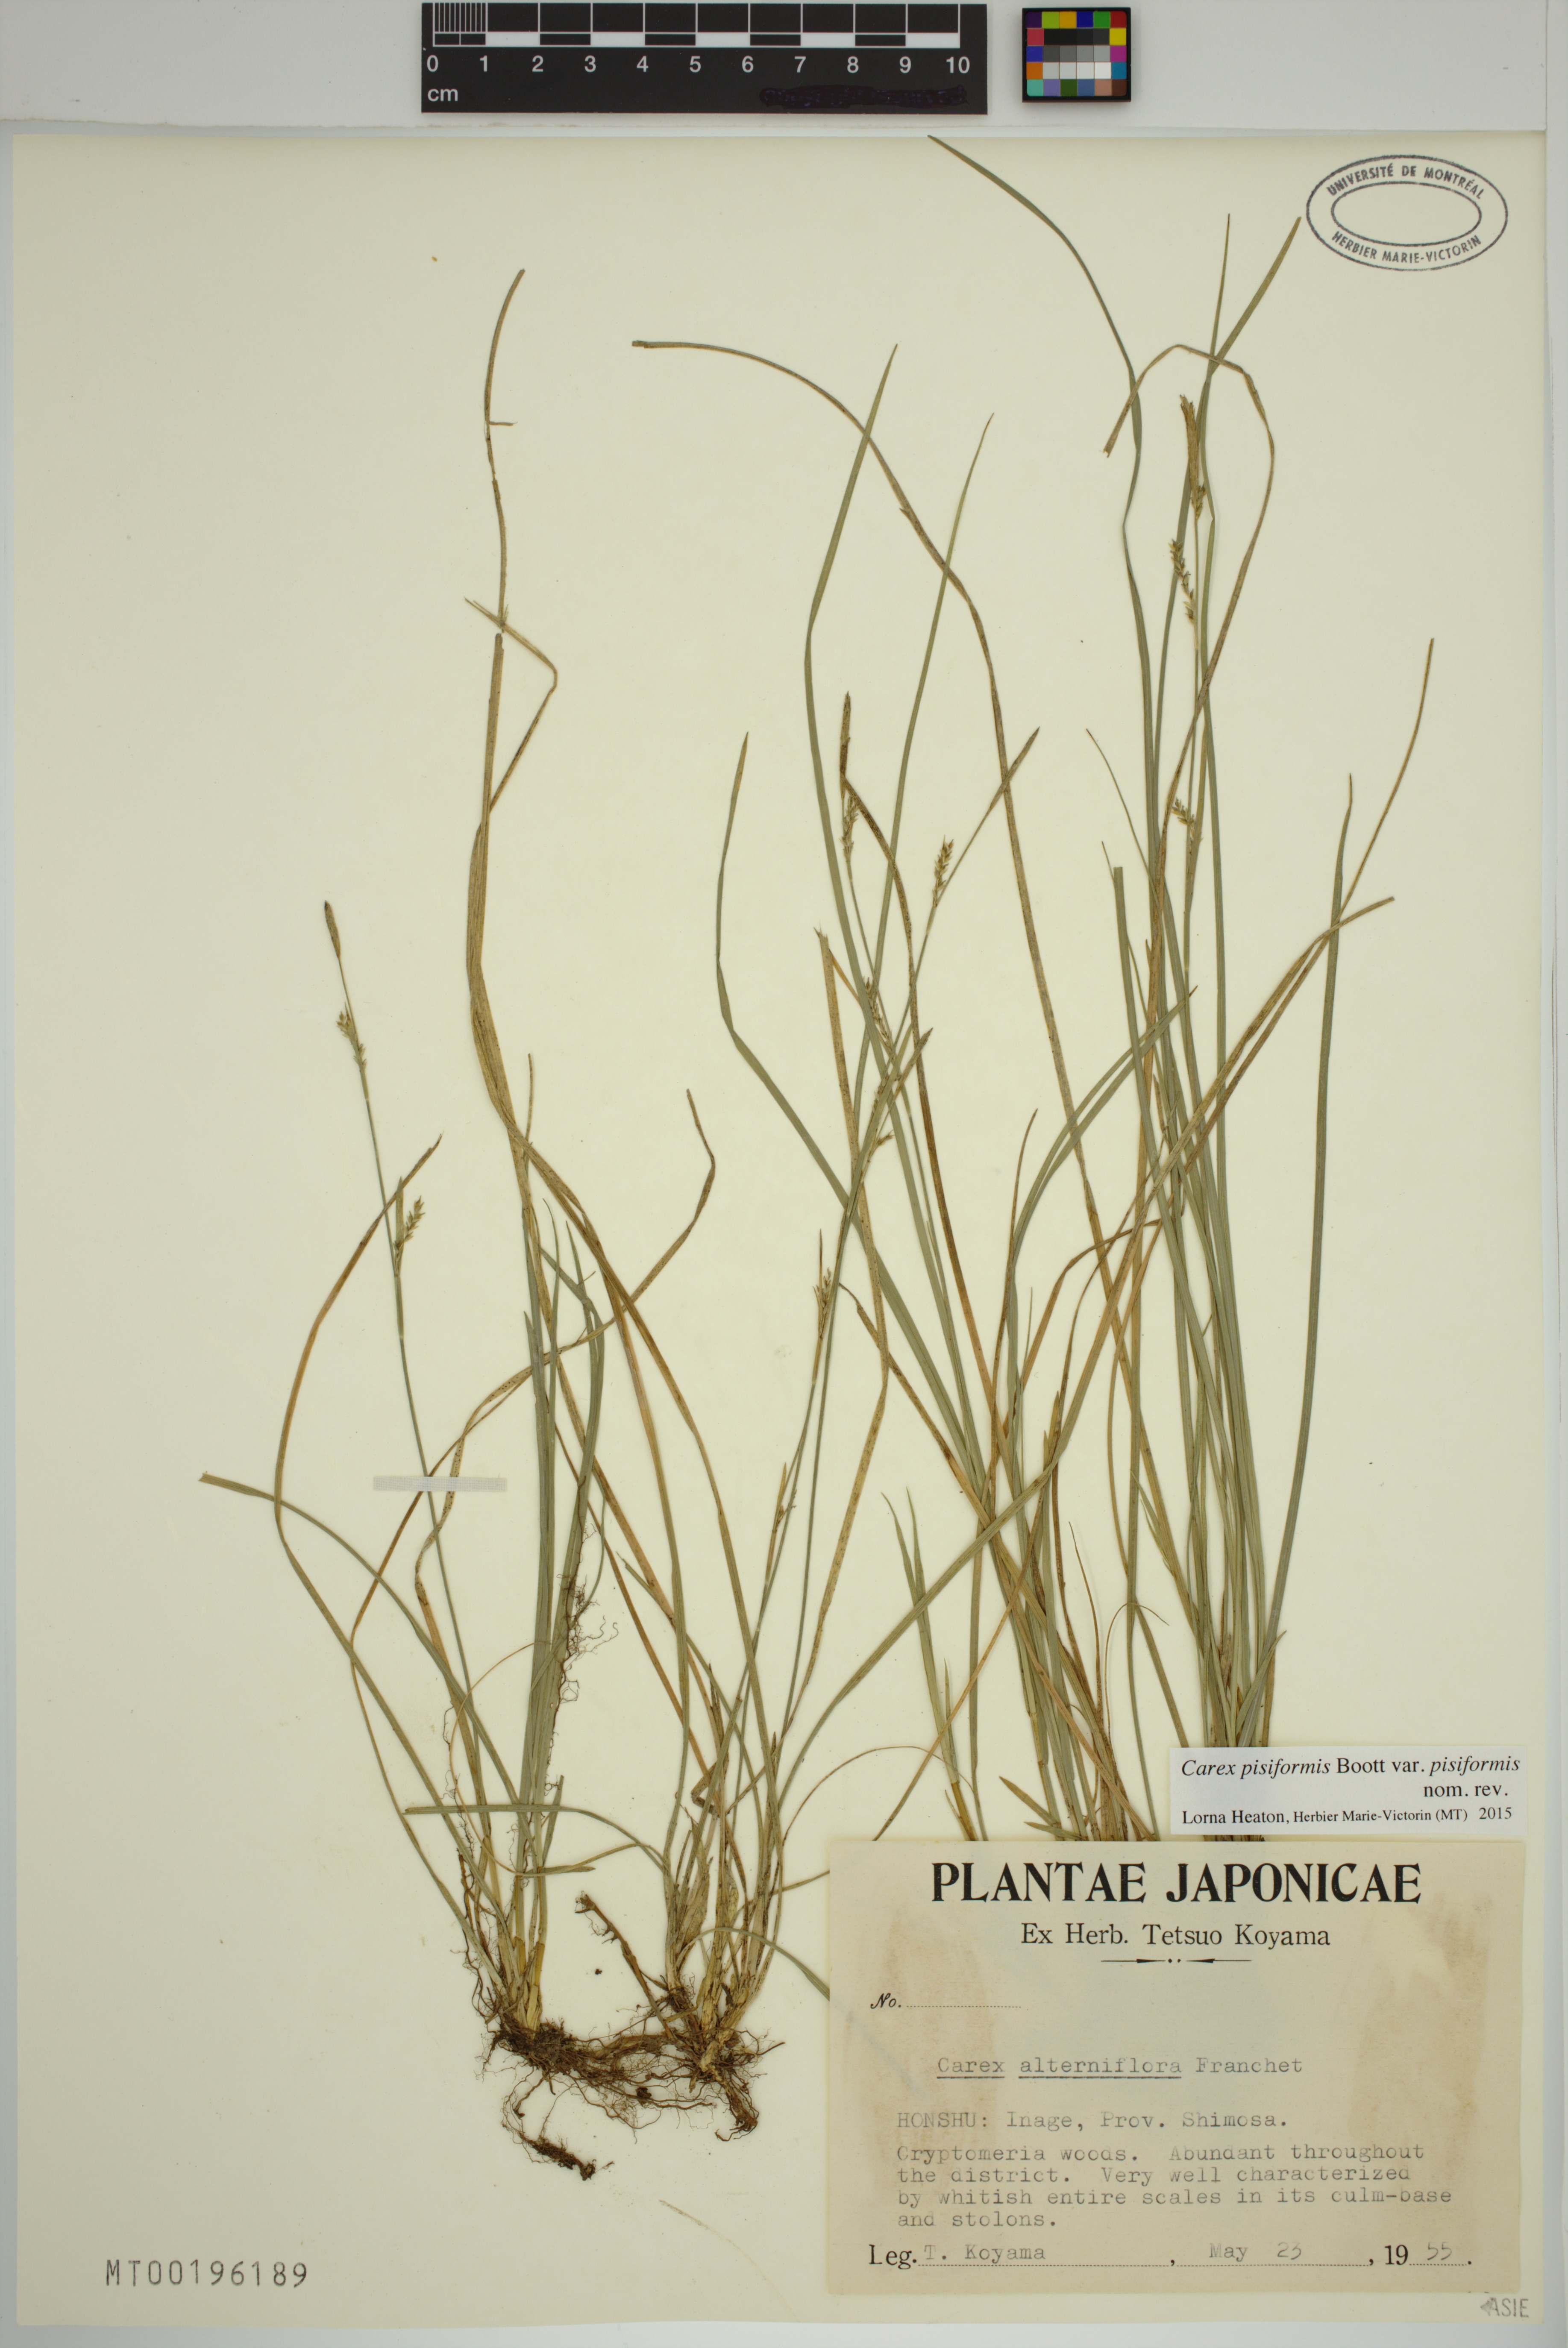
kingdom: Plantae
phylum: Tracheophyta
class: Liliopsida
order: Poales
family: Cyperaceae
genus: Carex
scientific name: Carex pisiformis
